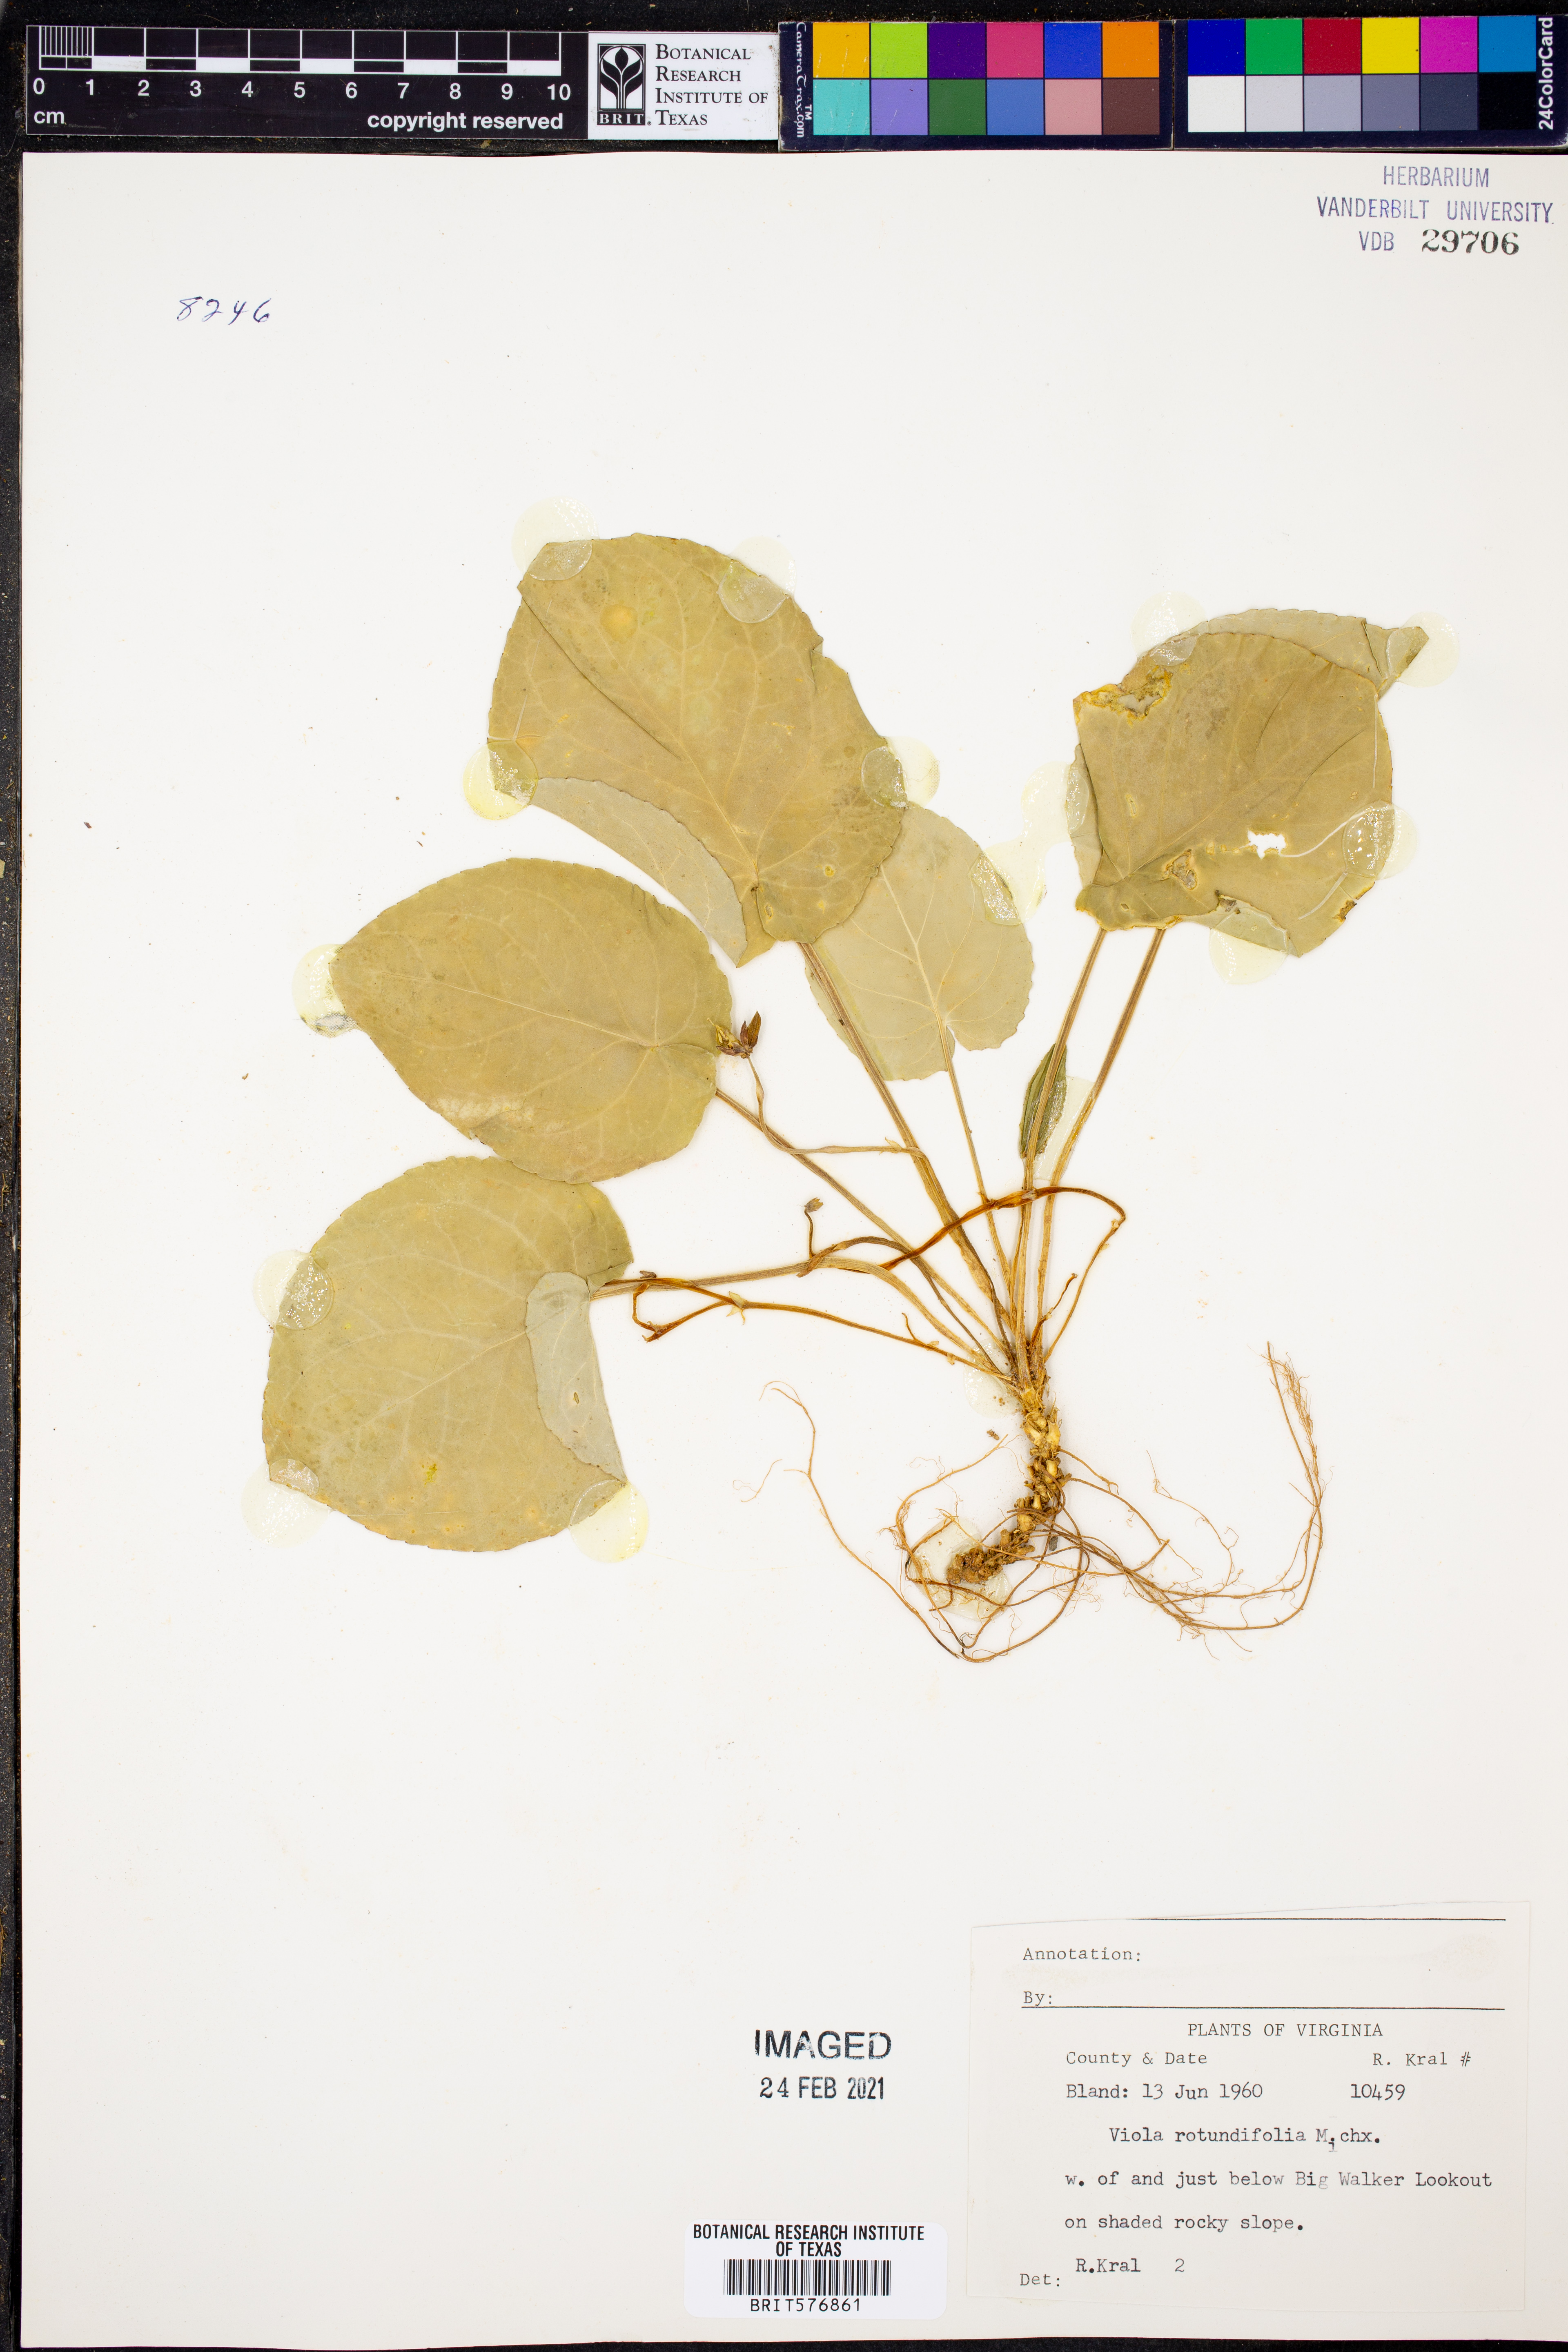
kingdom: Plantae
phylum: Tracheophyta
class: Magnoliopsida
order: Malpighiales
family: Violaceae
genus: Viola
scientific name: Viola rotundifolia
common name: Early yellow violet
